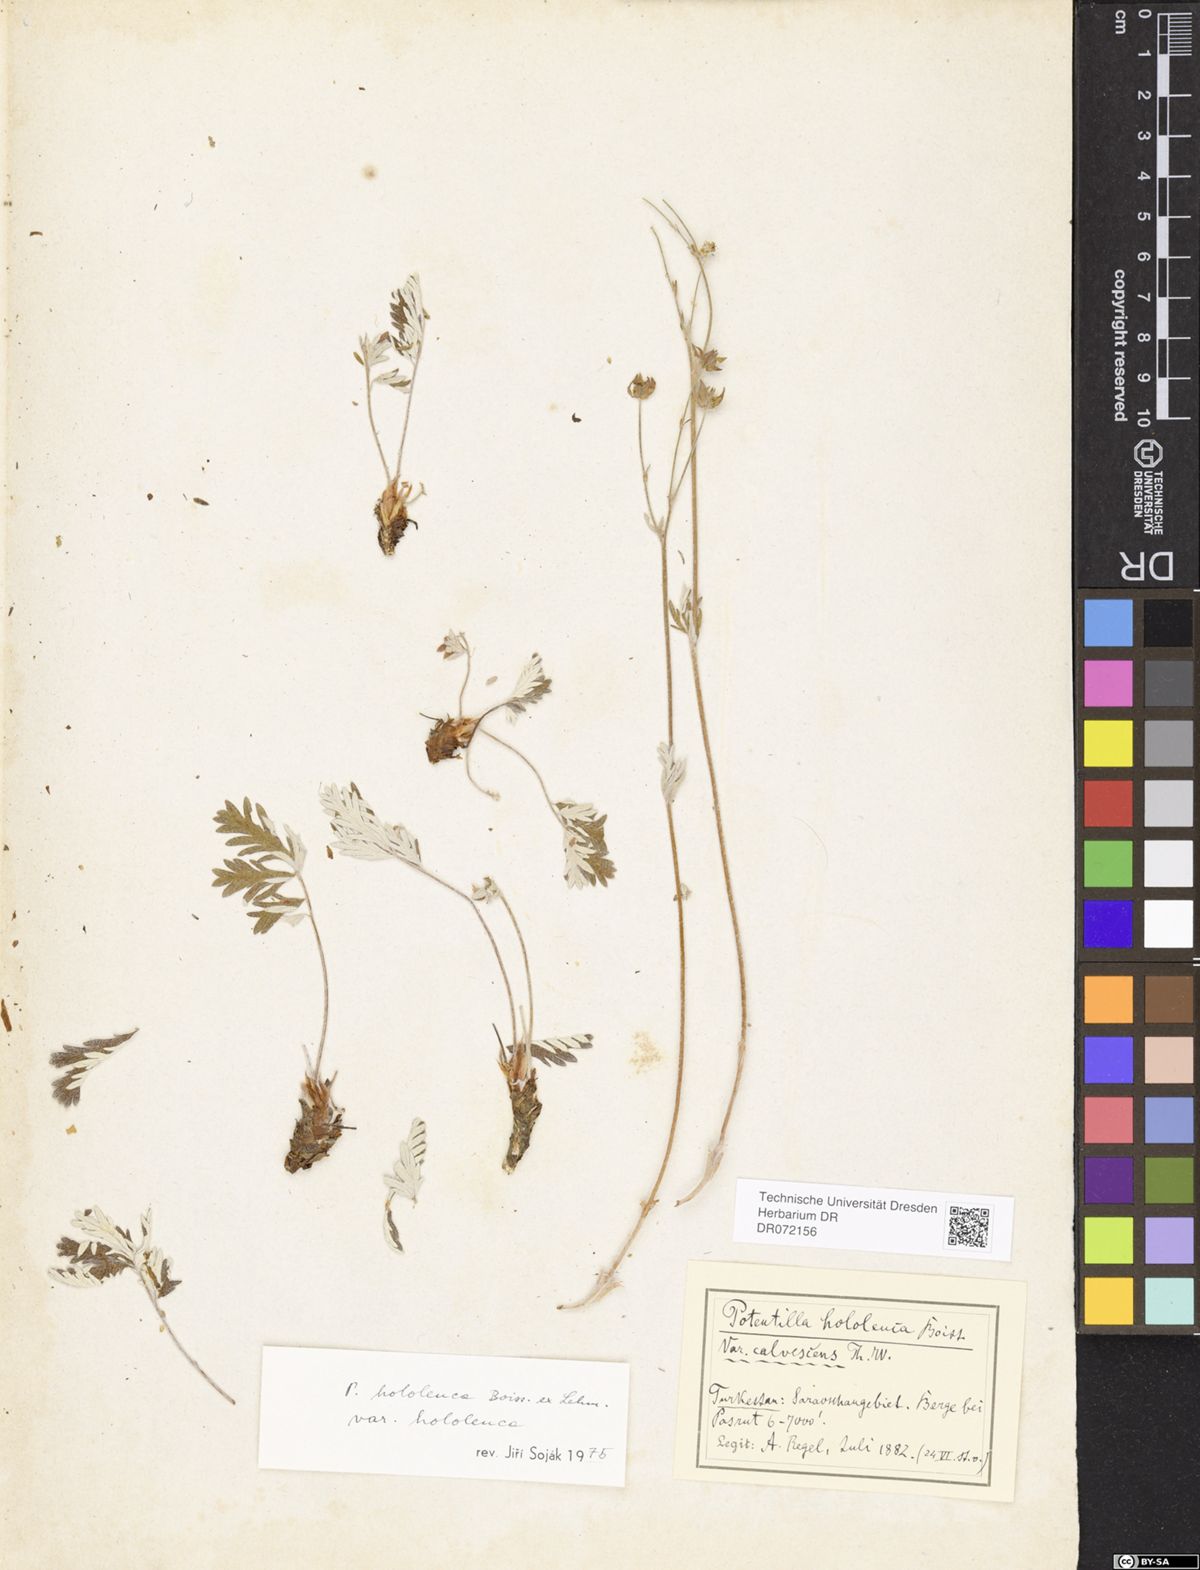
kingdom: Plantae
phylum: Tracheophyta
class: Magnoliopsida
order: Rosales
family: Rosaceae
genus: Potentilla
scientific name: Potentilla hololeuca
